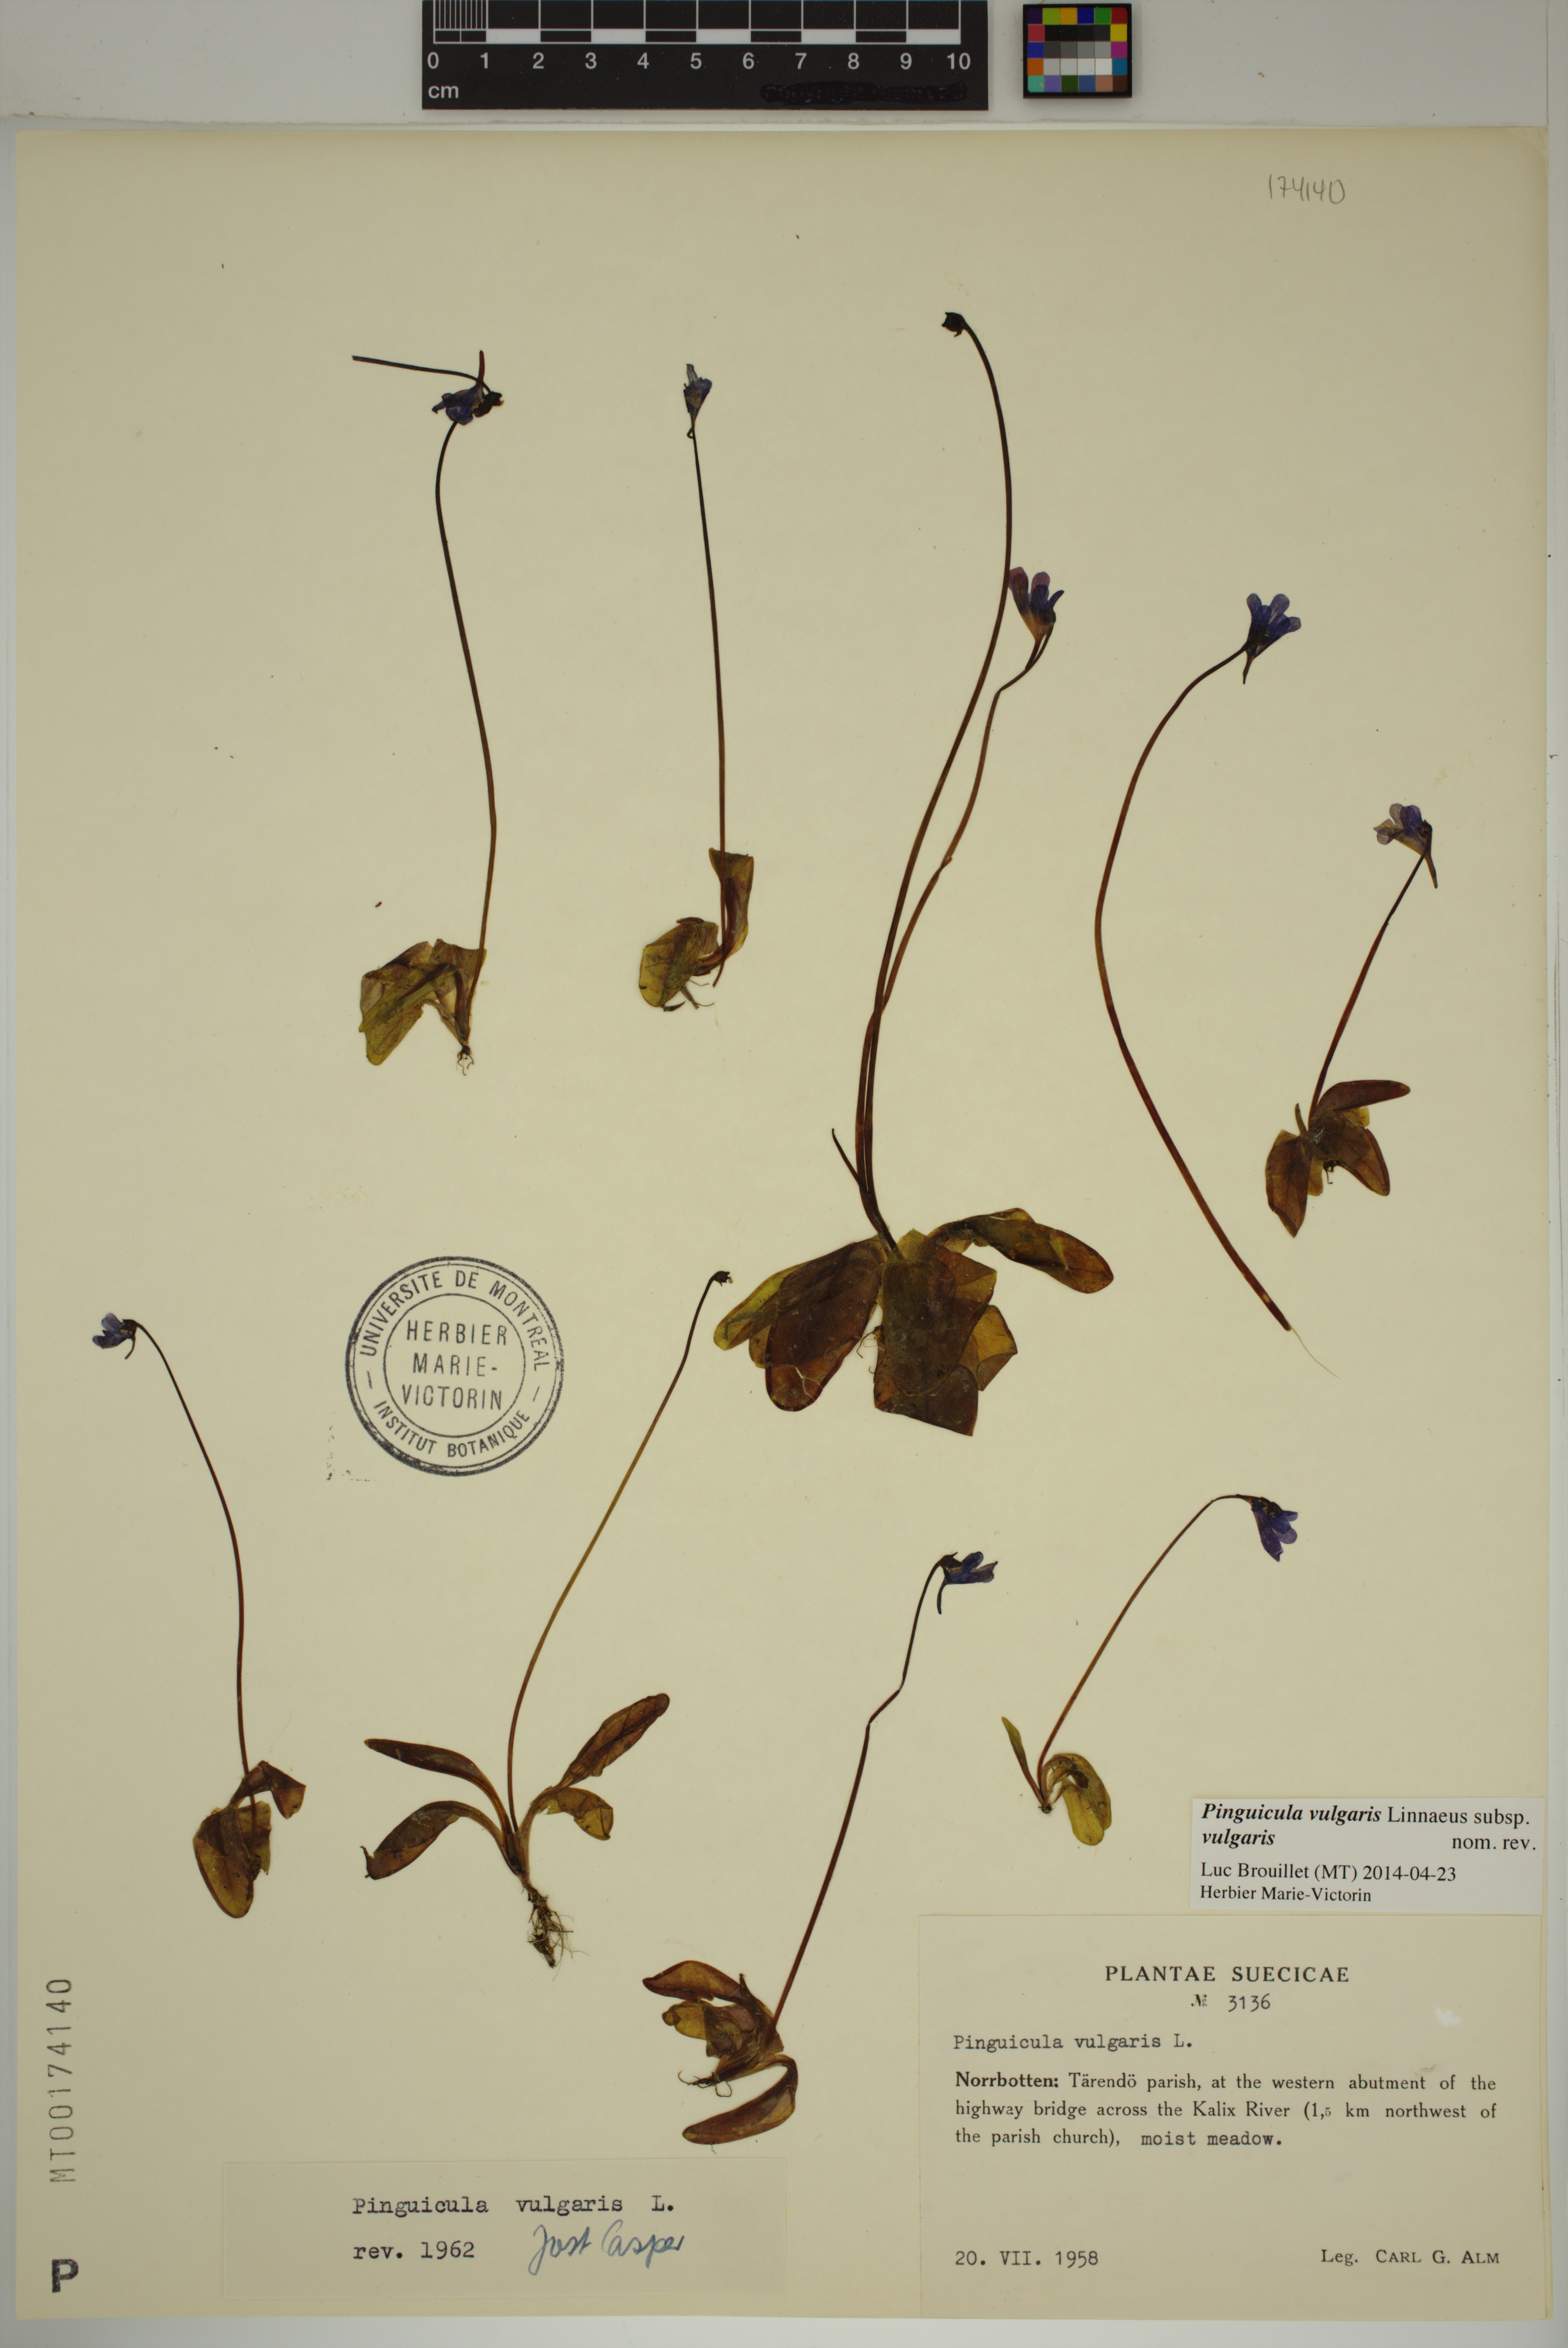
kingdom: Plantae
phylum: Tracheophyta
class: Magnoliopsida
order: Lamiales
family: Lentibulariaceae
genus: Pinguicula
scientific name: Pinguicula vulgaris
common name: Common butterwort
